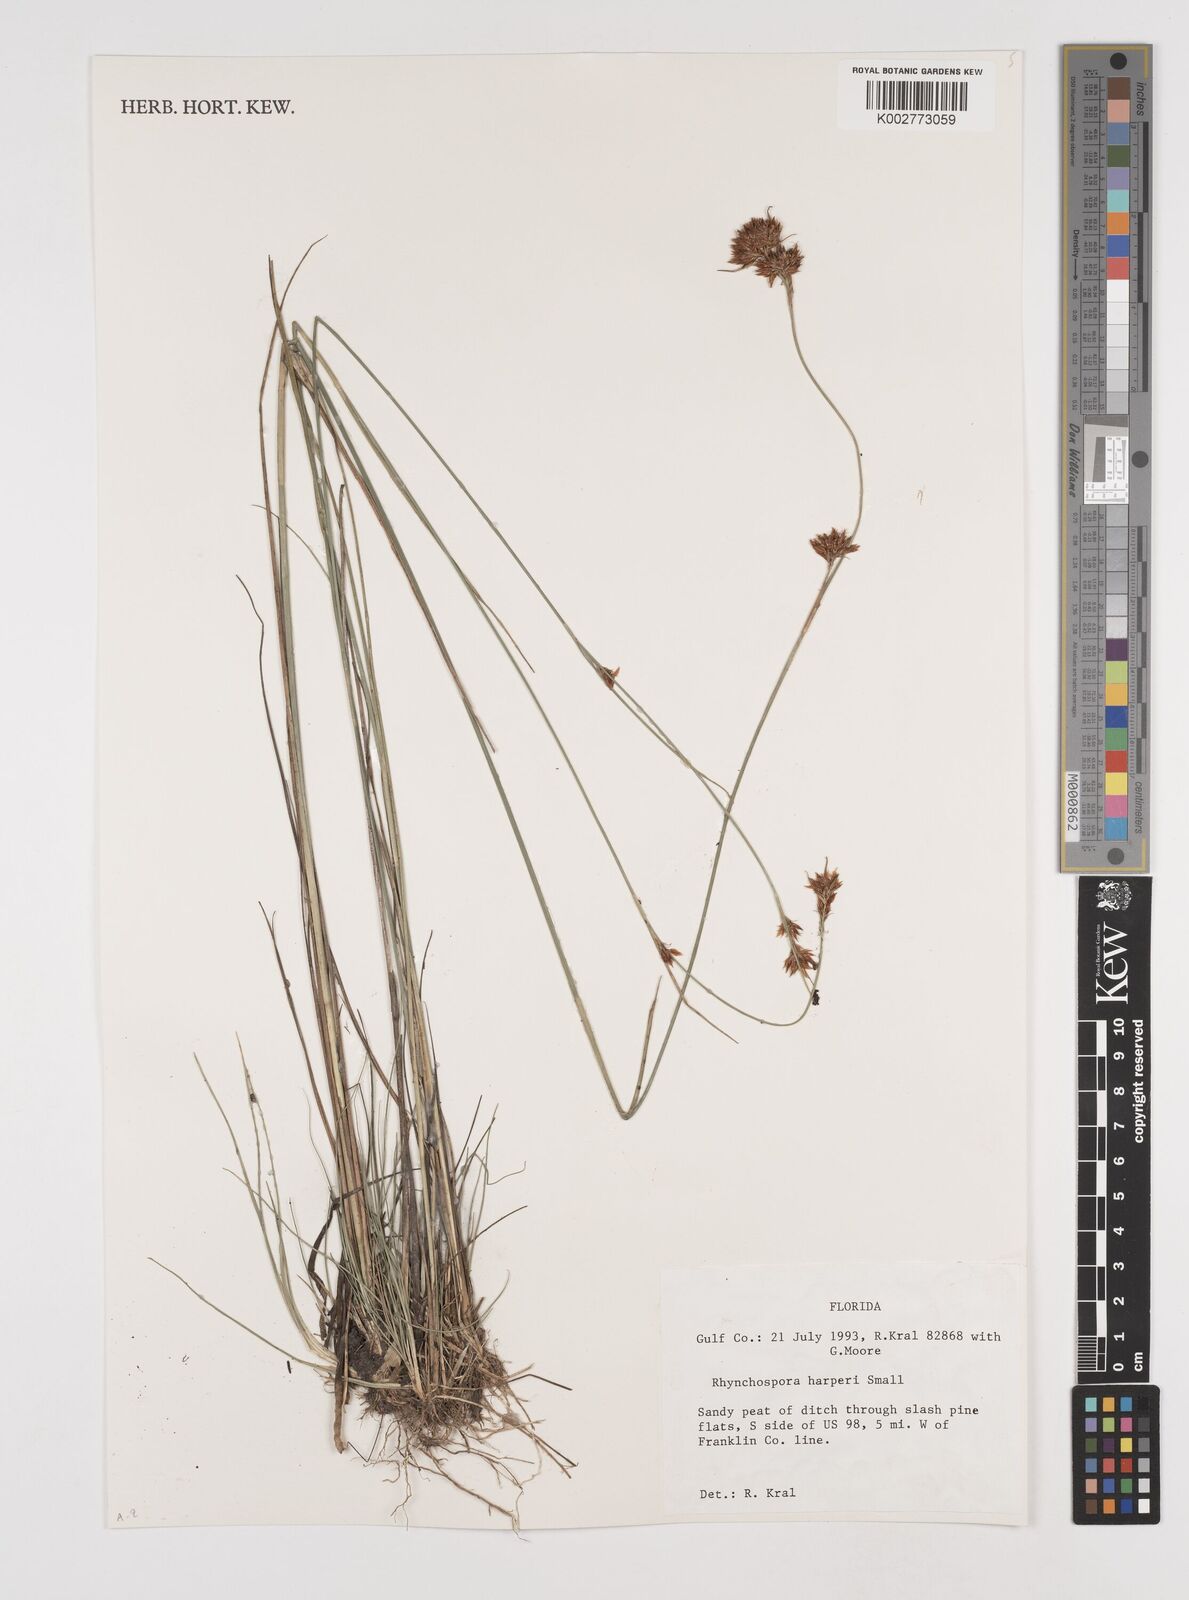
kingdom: Plantae
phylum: Tracheophyta
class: Liliopsida
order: Poales
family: Cyperaceae
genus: Rhynchospora
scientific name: Rhynchospora harperi
